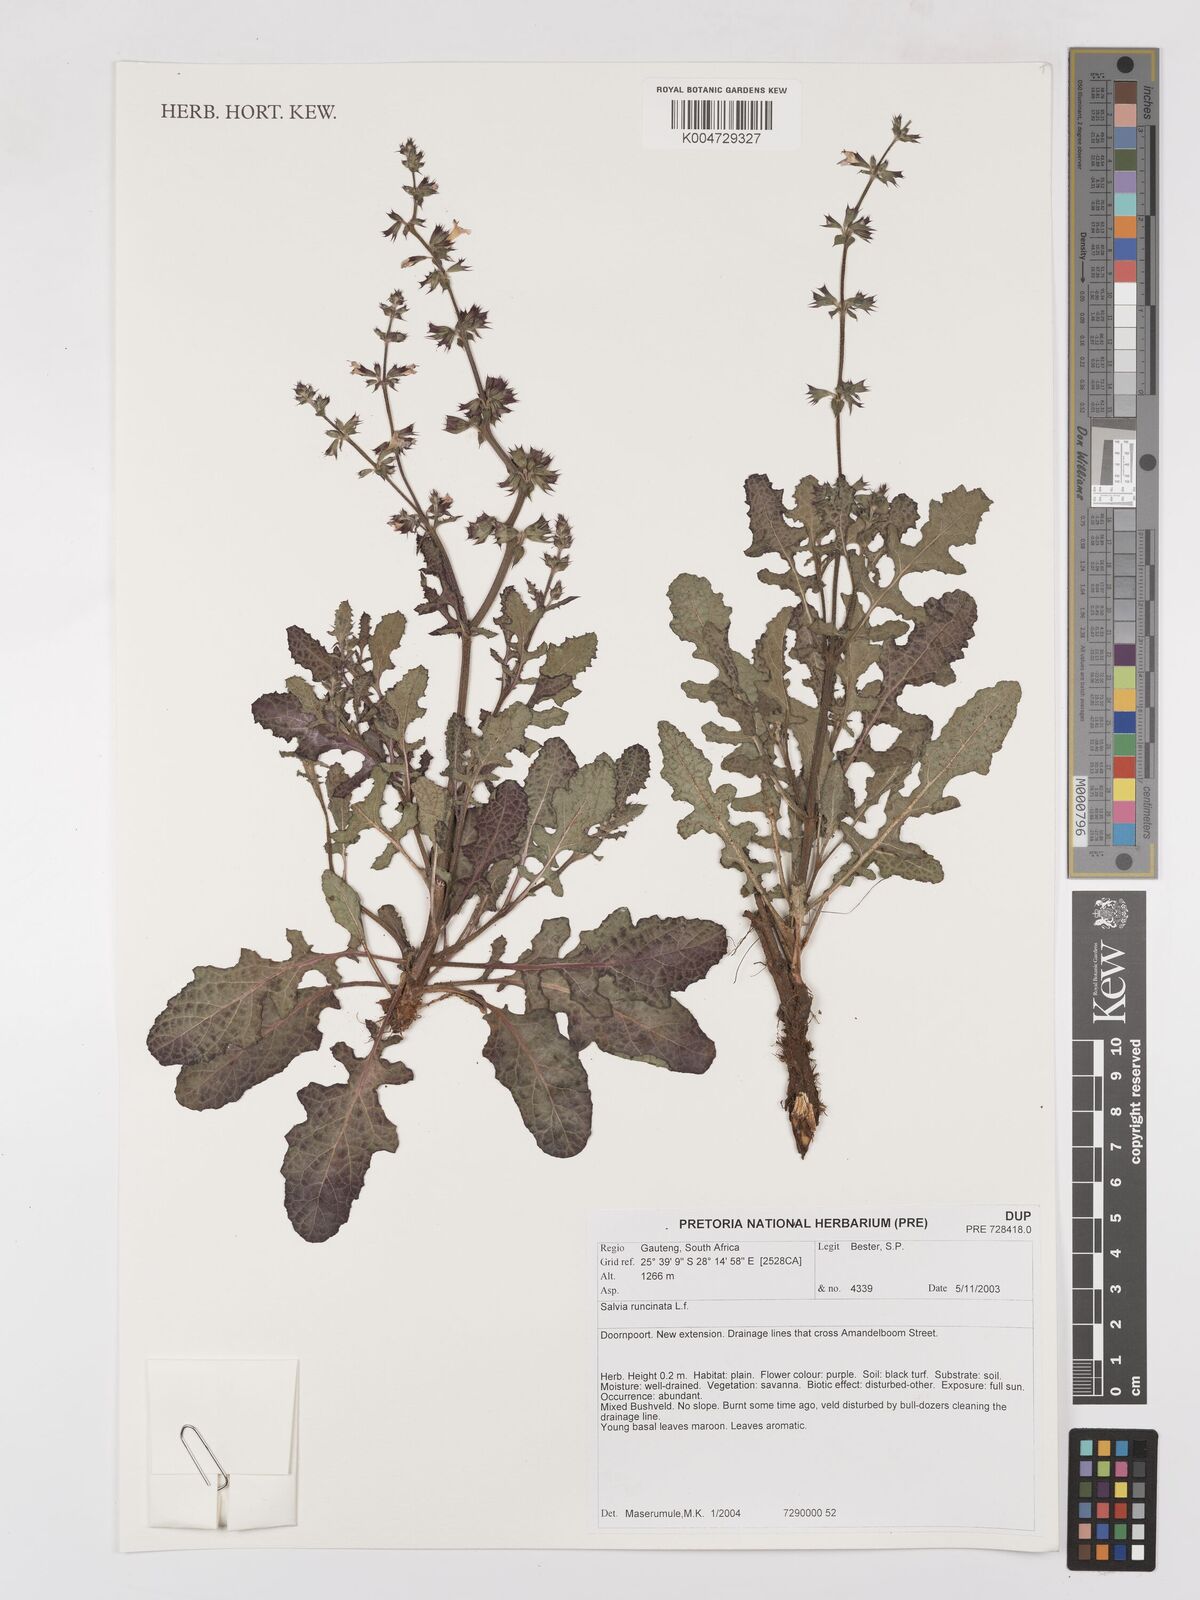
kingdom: Plantae
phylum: Tracheophyta
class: Magnoliopsida
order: Lamiales
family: Lamiaceae
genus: Salvia
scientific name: Salvia runcinata
